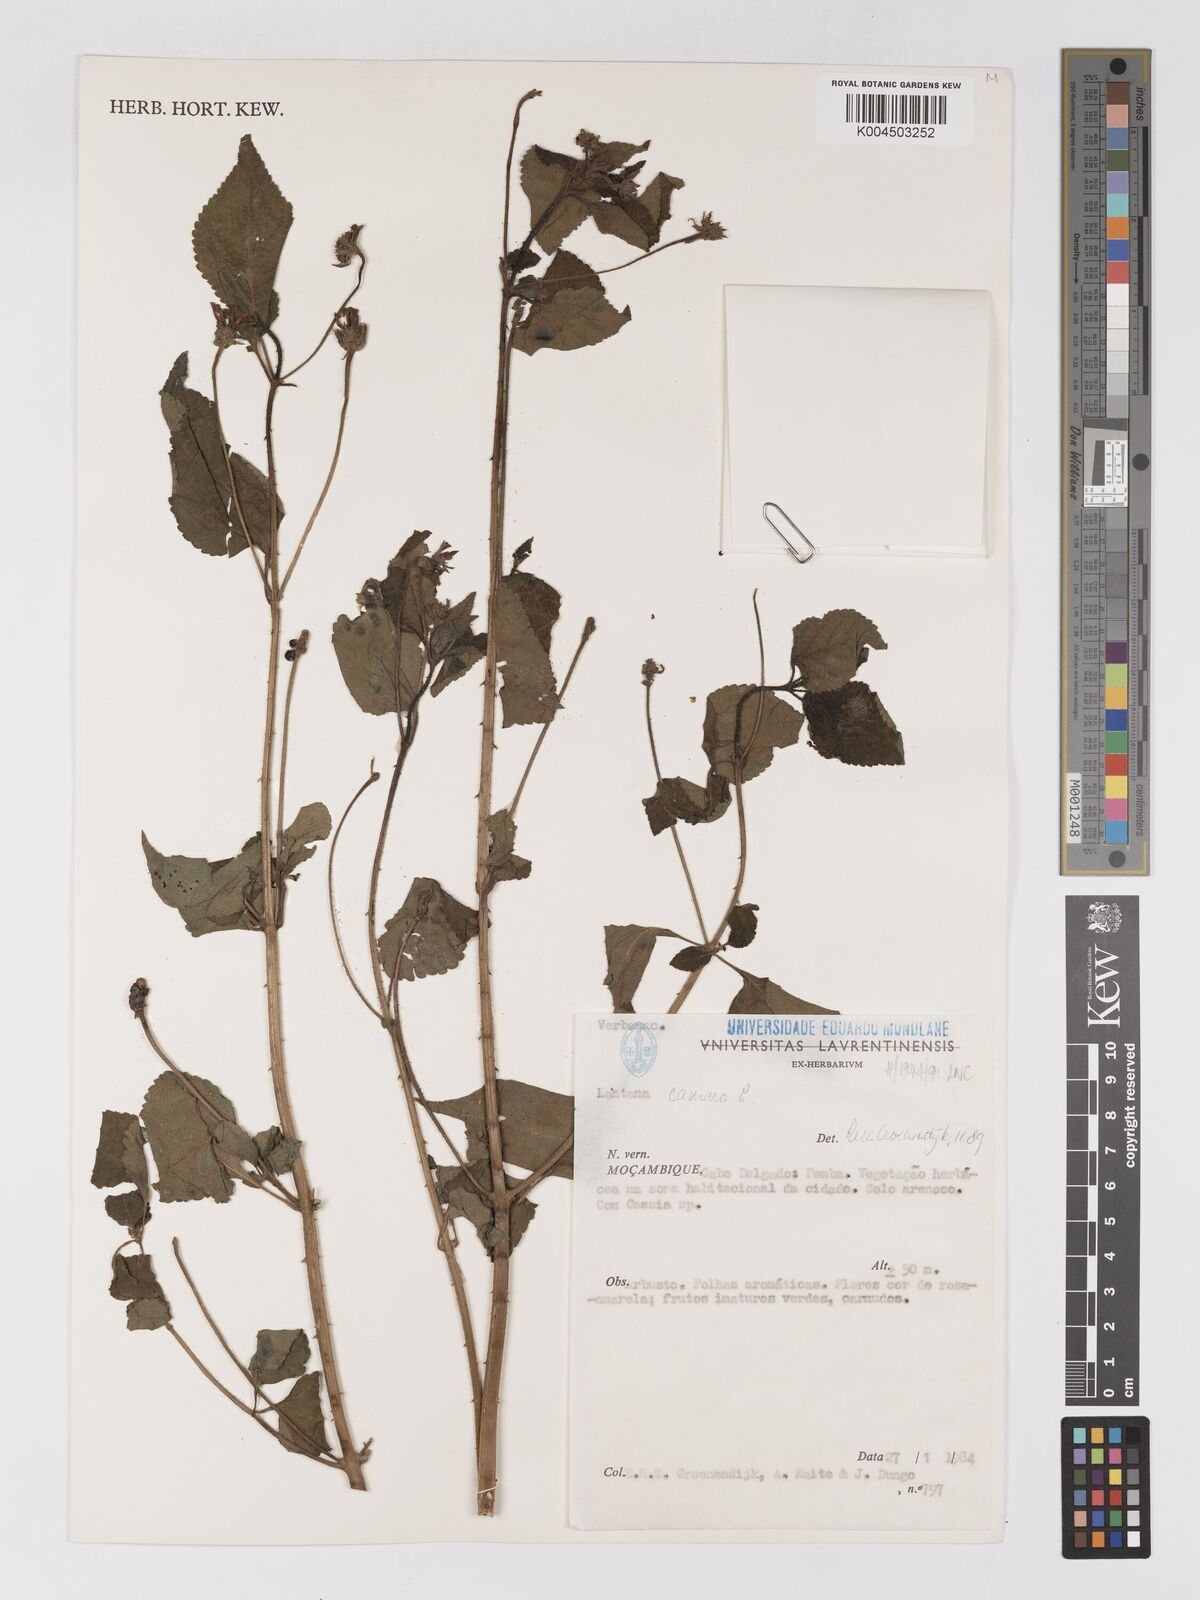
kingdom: Plantae
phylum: Tracheophyta
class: Magnoliopsida
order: Lamiales
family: Verbenaceae
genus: Lantana
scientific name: Lantana camara
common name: Lantana
